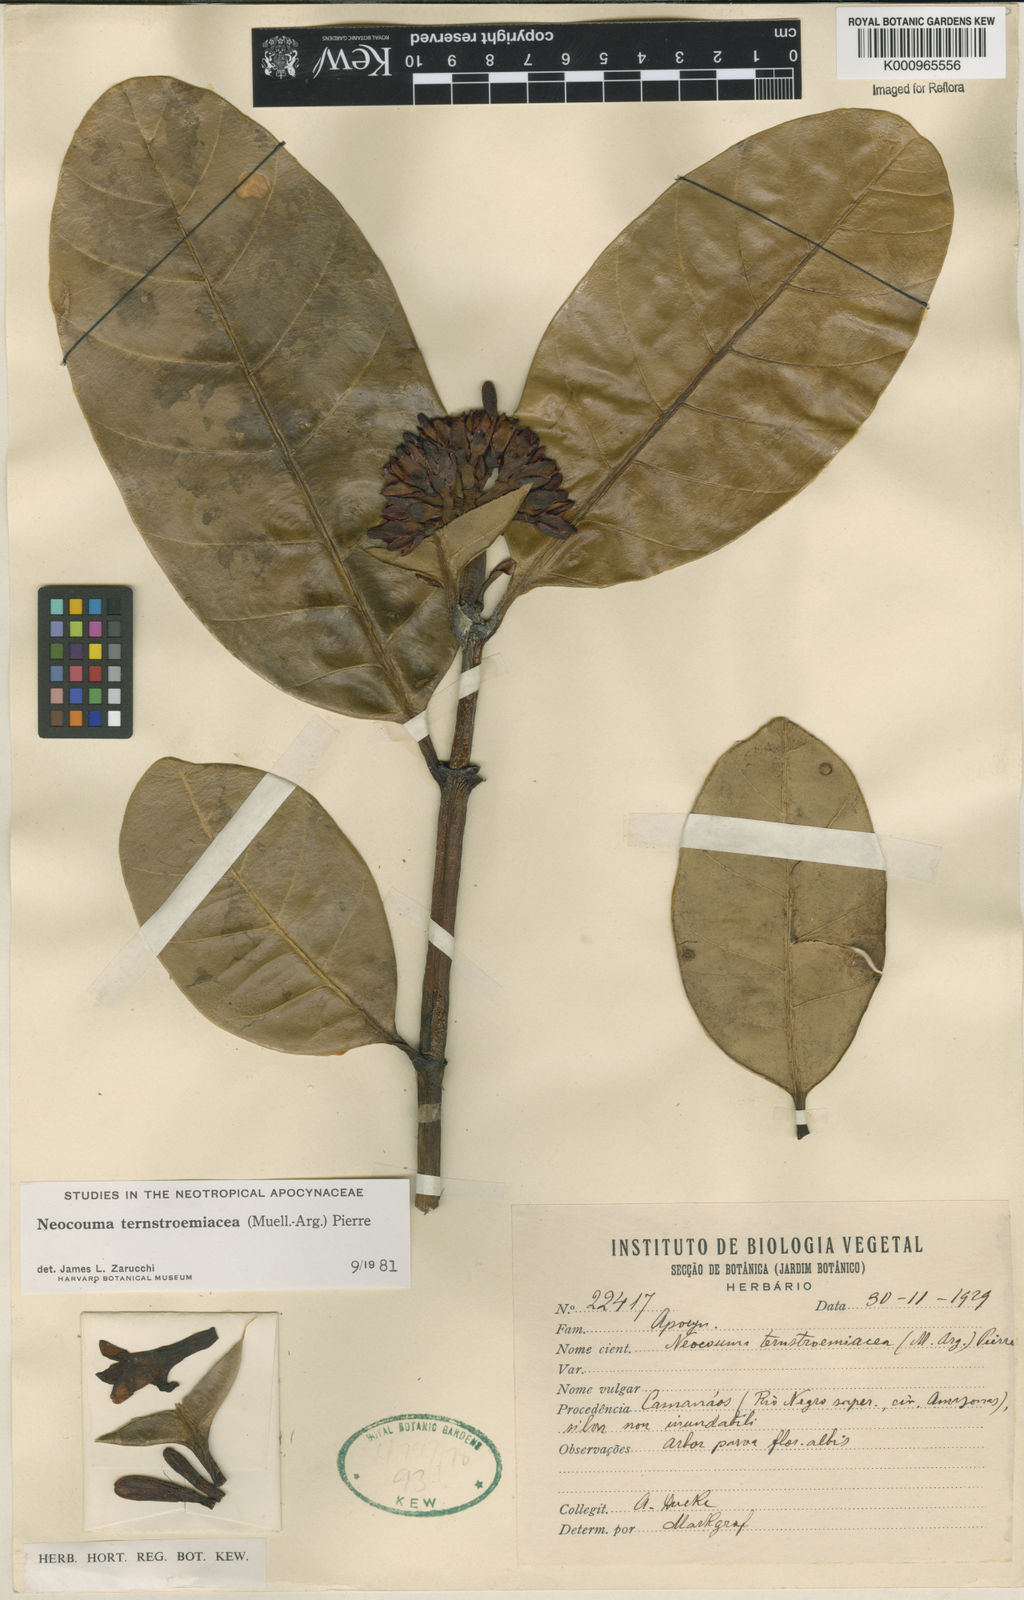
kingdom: Plantae
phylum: Tracheophyta
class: Magnoliopsida
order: Gentianales
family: Apocynaceae
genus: Neocouma
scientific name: Neocouma
